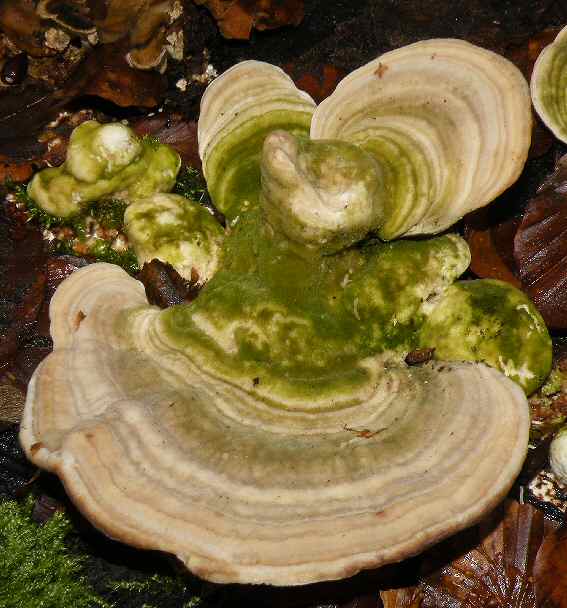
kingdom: Fungi
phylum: Basidiomycota
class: Agaricomycetes
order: Polyporales
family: Polyporaceae
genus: Trametes
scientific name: Trametes gibbosa
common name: puklet læderporesvamp
